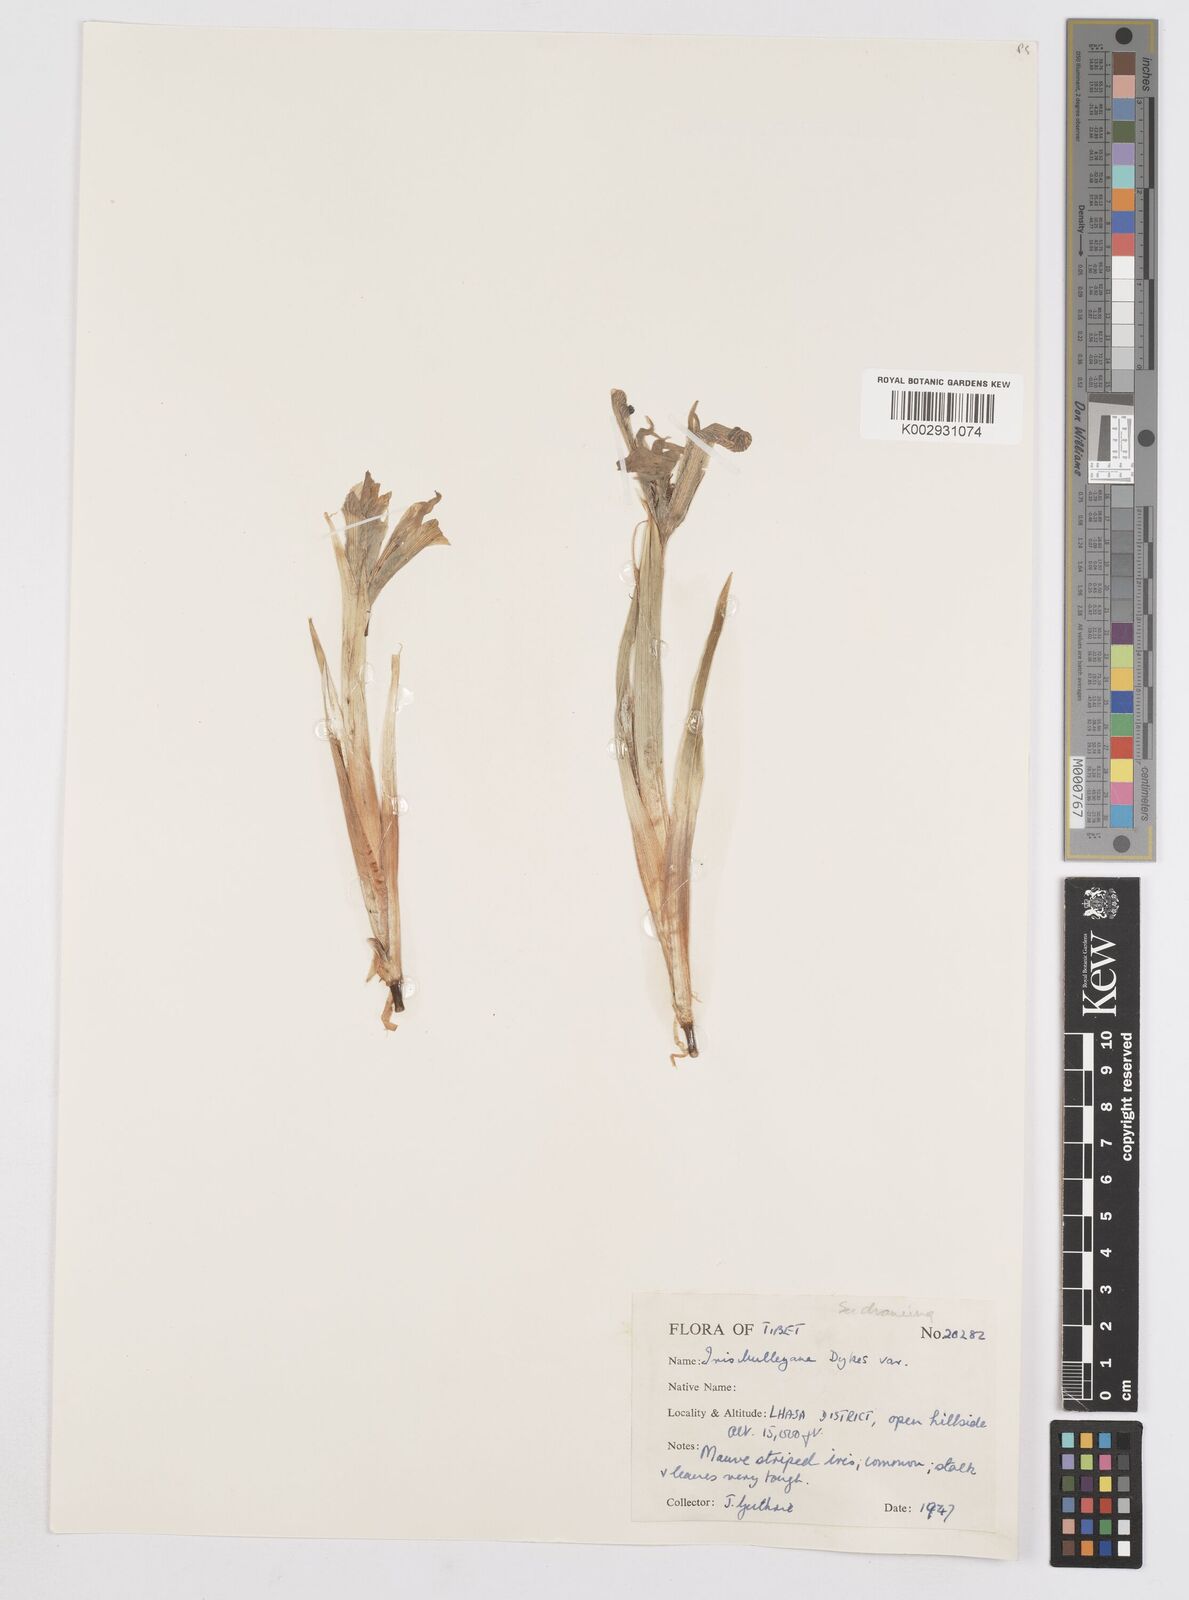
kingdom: Plantae
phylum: Tracheophyta
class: Liliopsida
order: Asparagales
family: Iridaceae
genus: Iris
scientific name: Iris tenuifolia
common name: Slender-leaf iris
